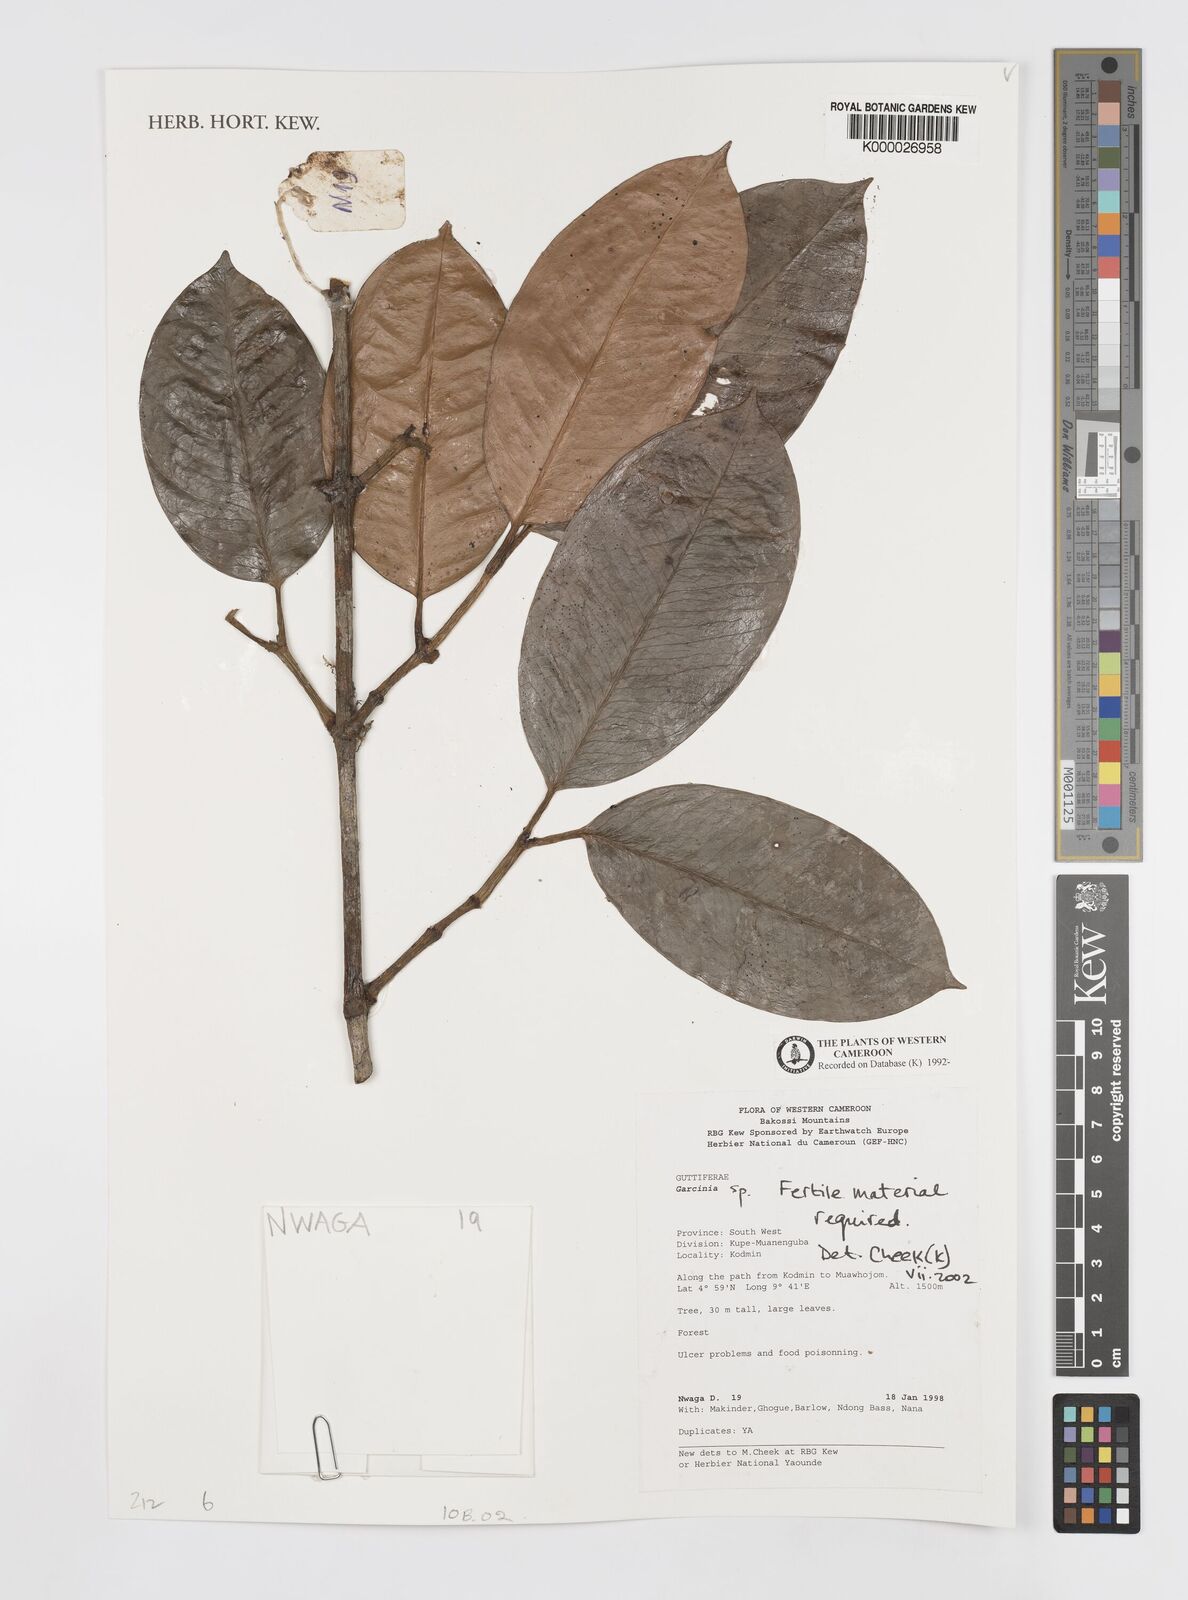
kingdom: Plantae
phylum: Tracheophyta
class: Magnoliopsida
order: Malpighiales
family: Clusiaceae
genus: Garcinia
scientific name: Garcinia
